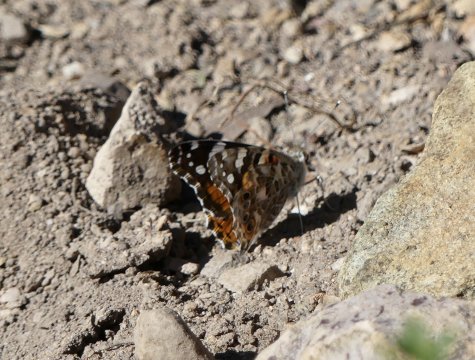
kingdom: Animalia
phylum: Arthropoda
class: Insecta
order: Lepidoptera
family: Nymphalidae
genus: Vanessa
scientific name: Vanessa cardui
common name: Painted Lady
